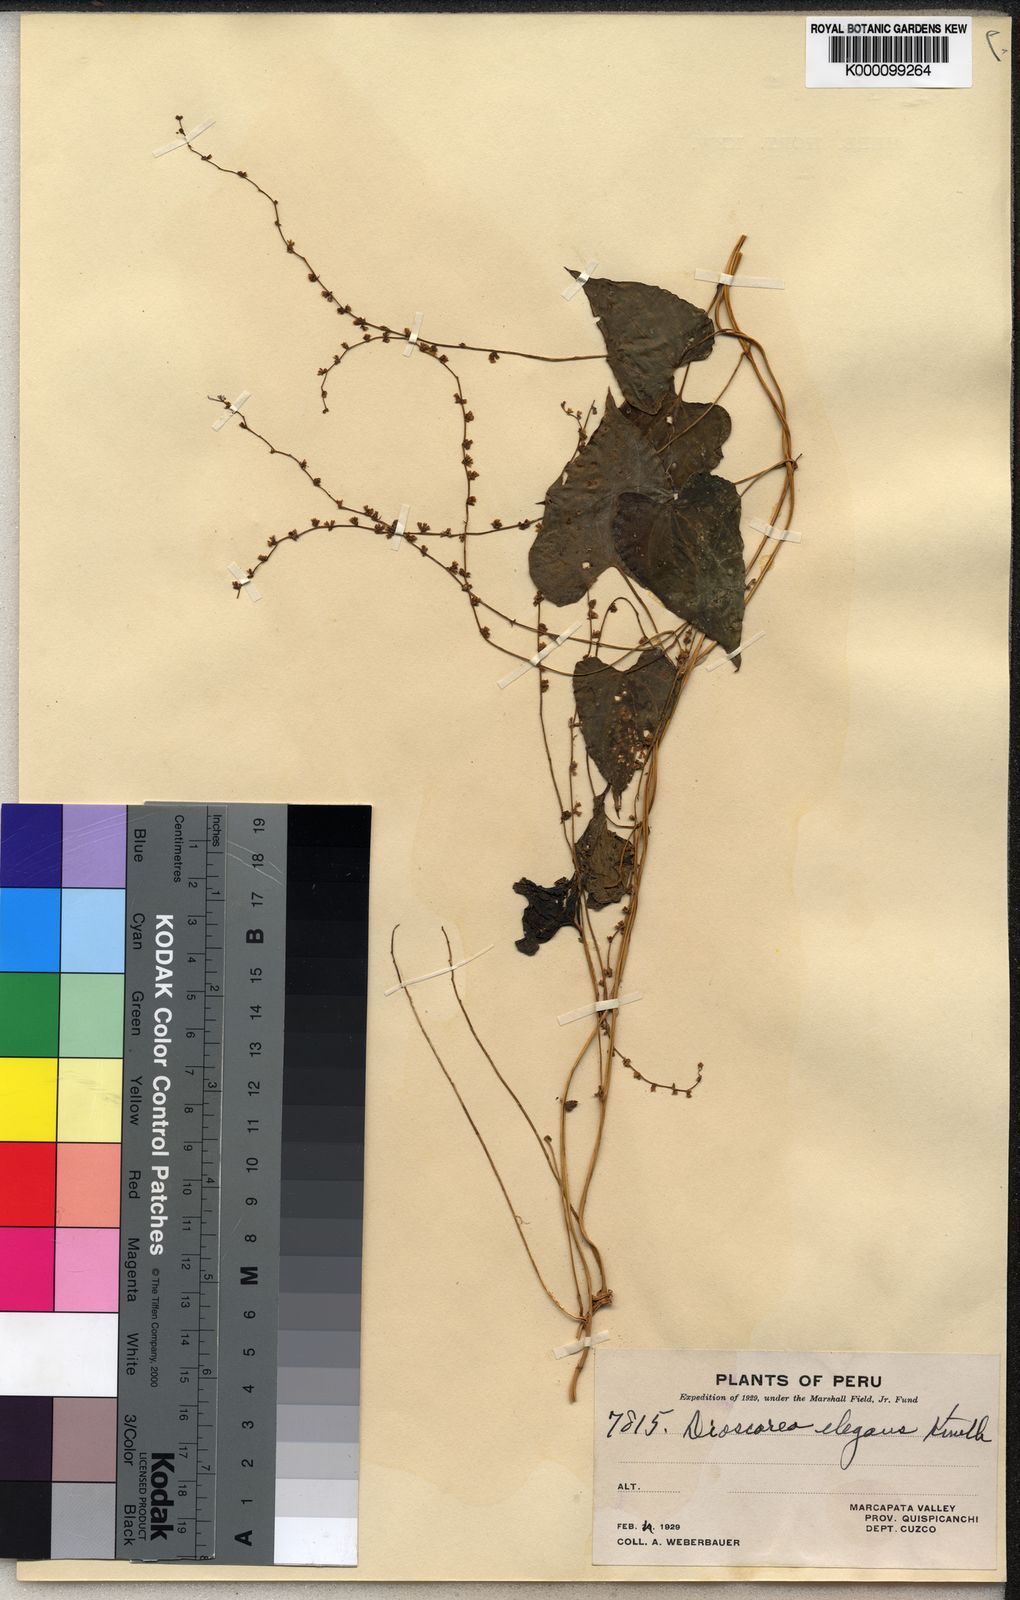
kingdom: Plantae
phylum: Tracheophyta
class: Liliopsida
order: Dioscoreales
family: Dioscoreaceae
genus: Dioscorea
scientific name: Dioscorea schubertiae
